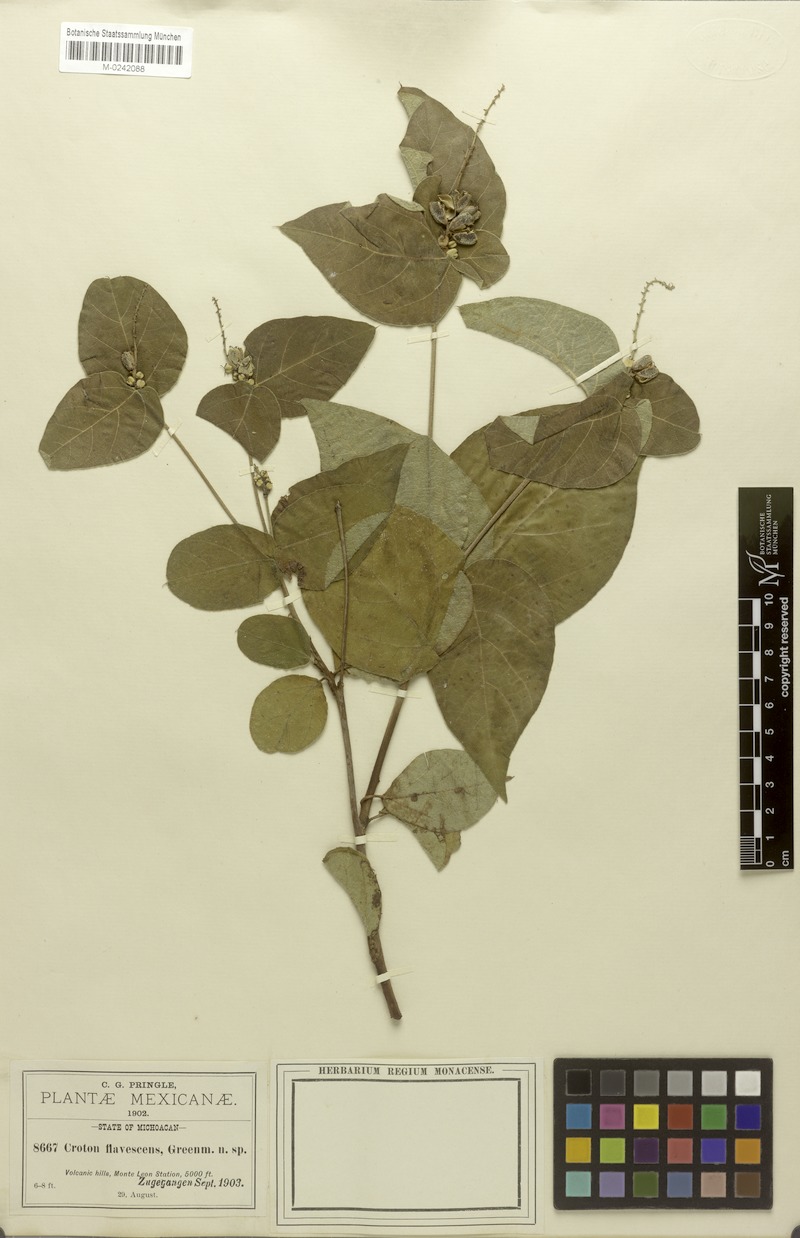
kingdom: Plantae
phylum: Tracheophyta
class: Magnoliopsida
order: Malpighiales
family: Euphorbiaceae
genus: Croton
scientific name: Croton morifolius
